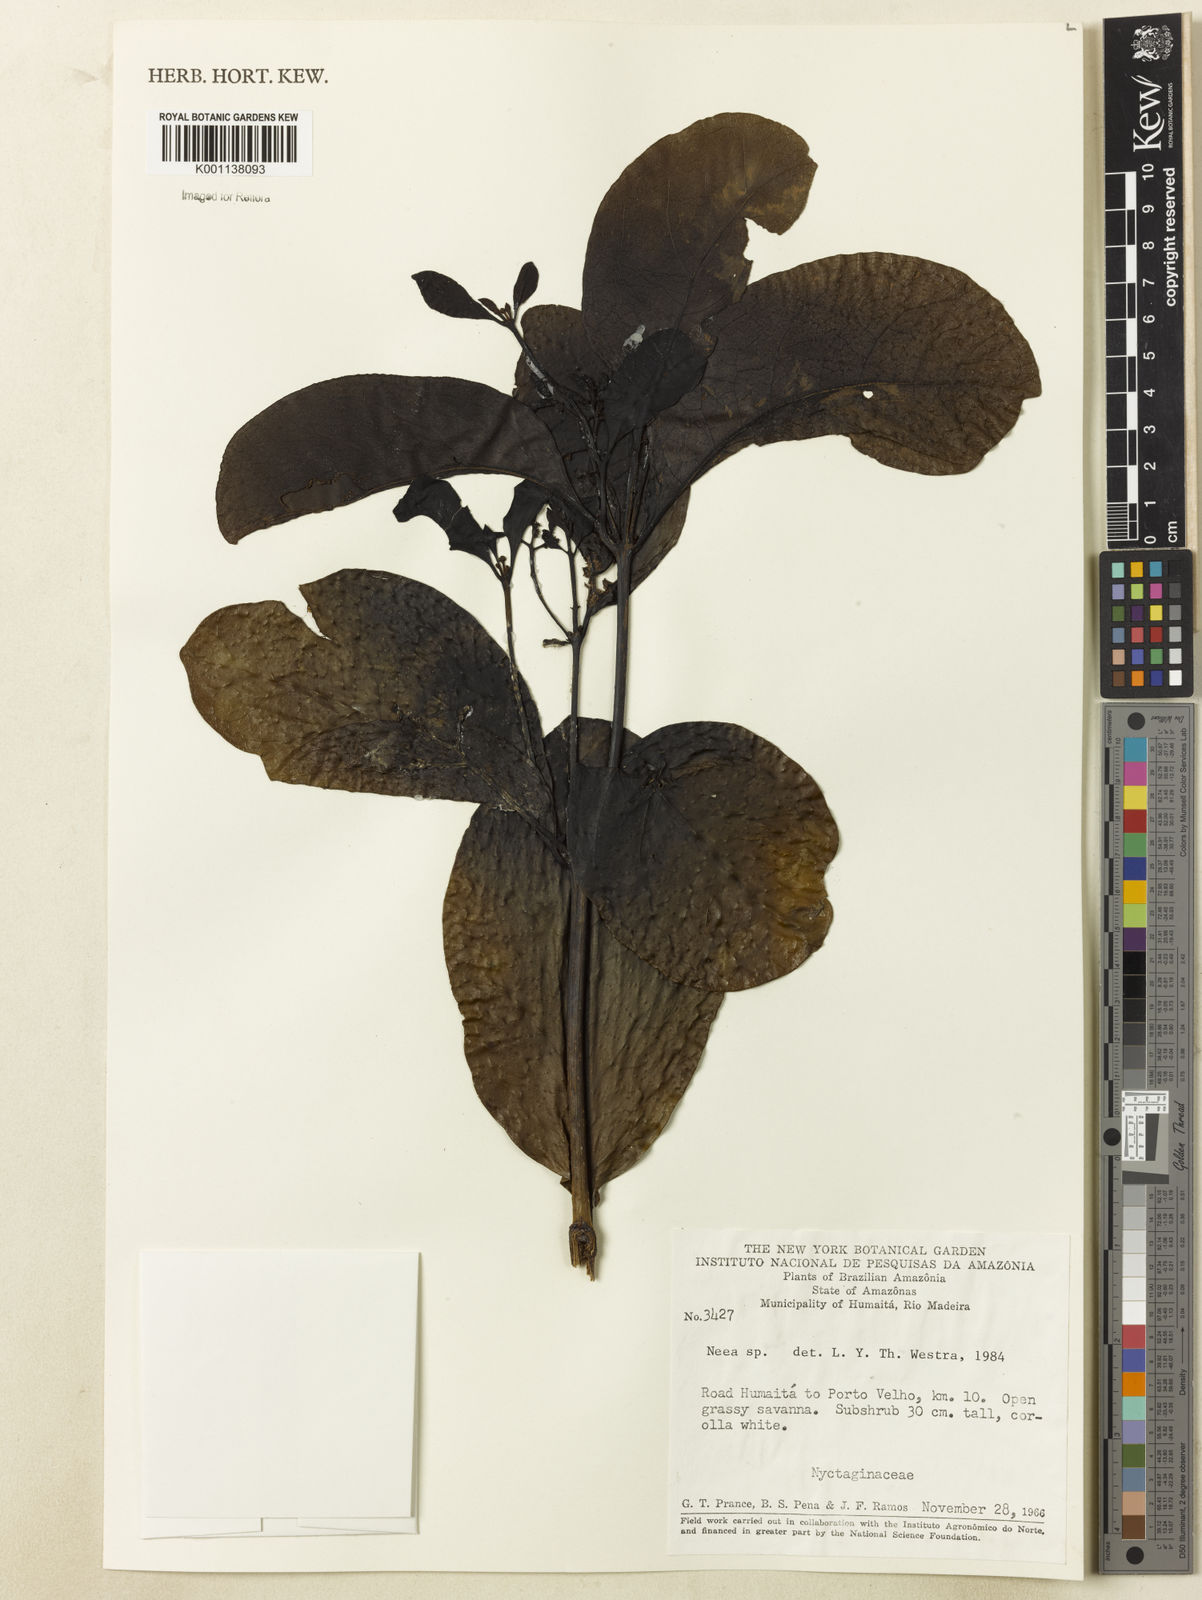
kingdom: Plantae
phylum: Tracheophyta
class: Magnoliopsida
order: Caryophyllales
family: Nyctaginaceae
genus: Neea
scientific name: Neea
